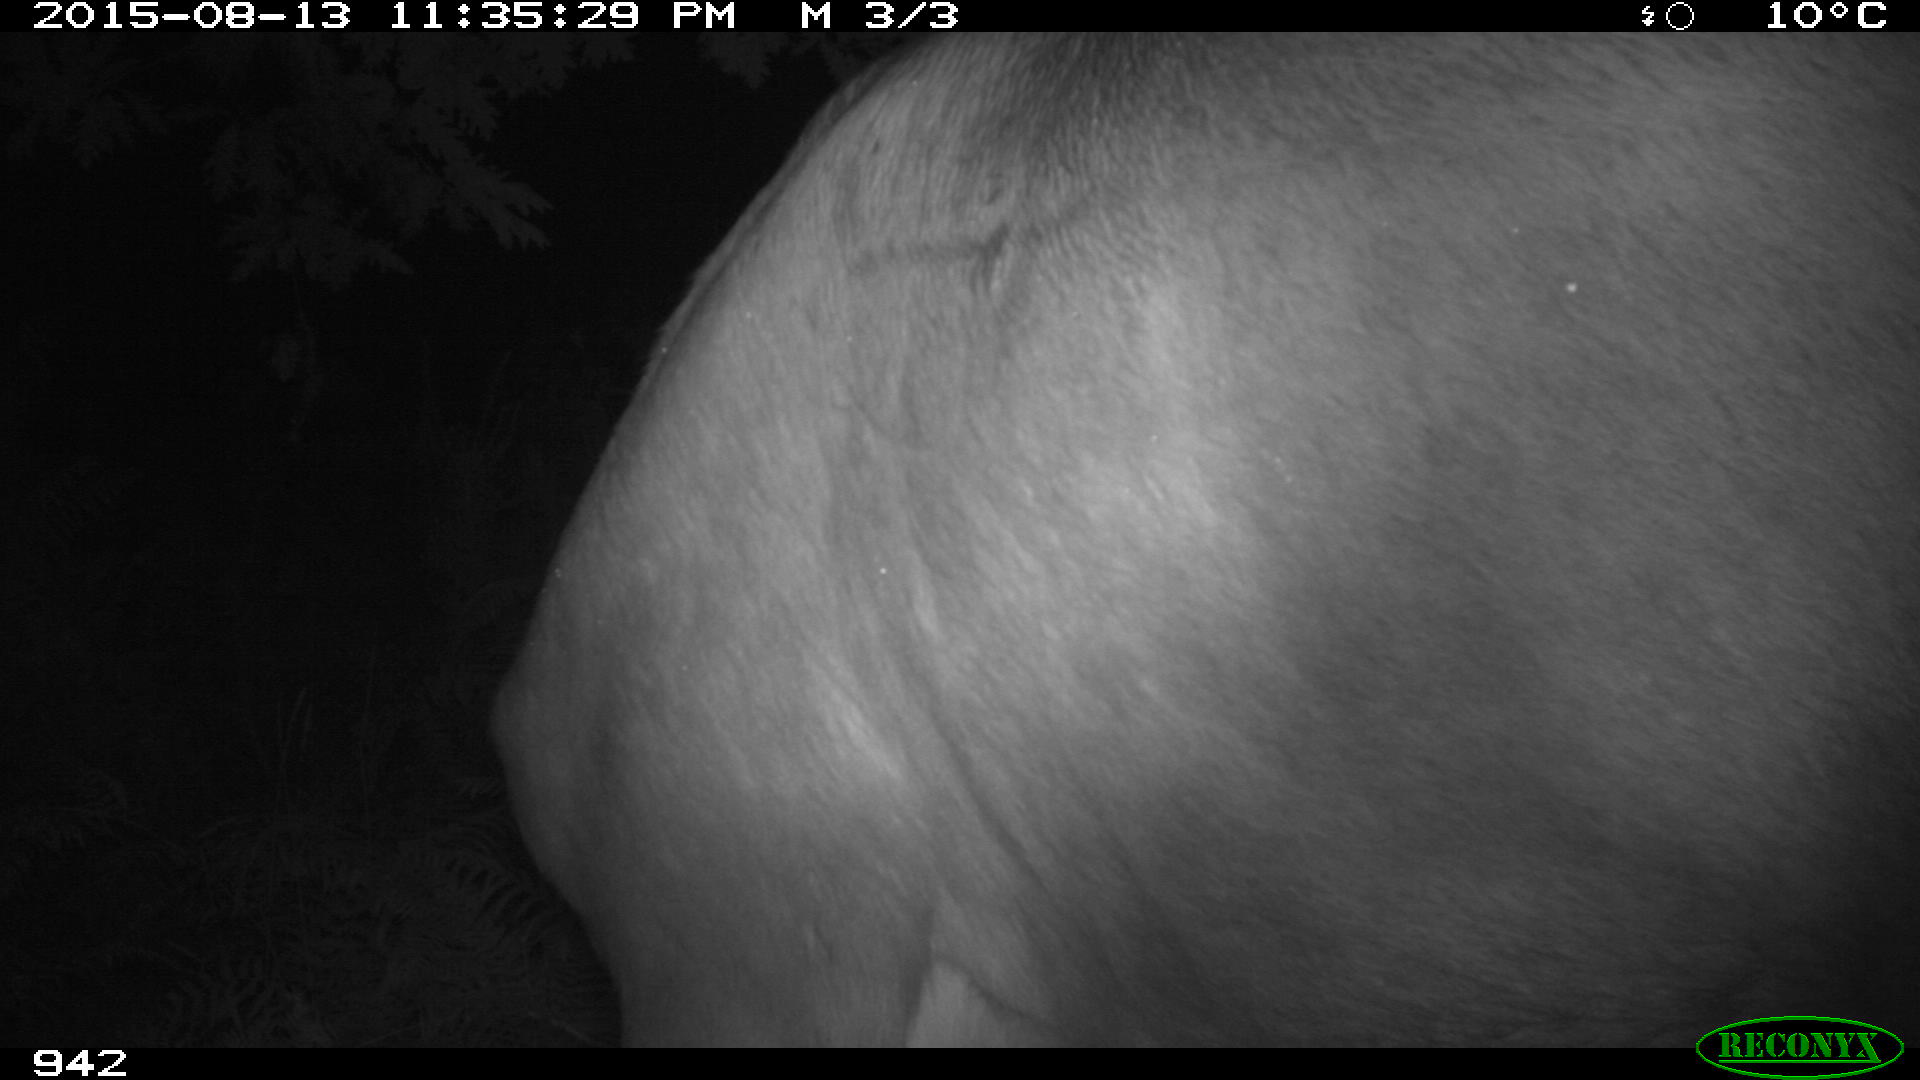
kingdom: Animalia
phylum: Chordata
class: Mammalia
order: Artiodactyla
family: Bovidae
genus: Bos
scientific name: Bos taurus
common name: Domesticated cattle
